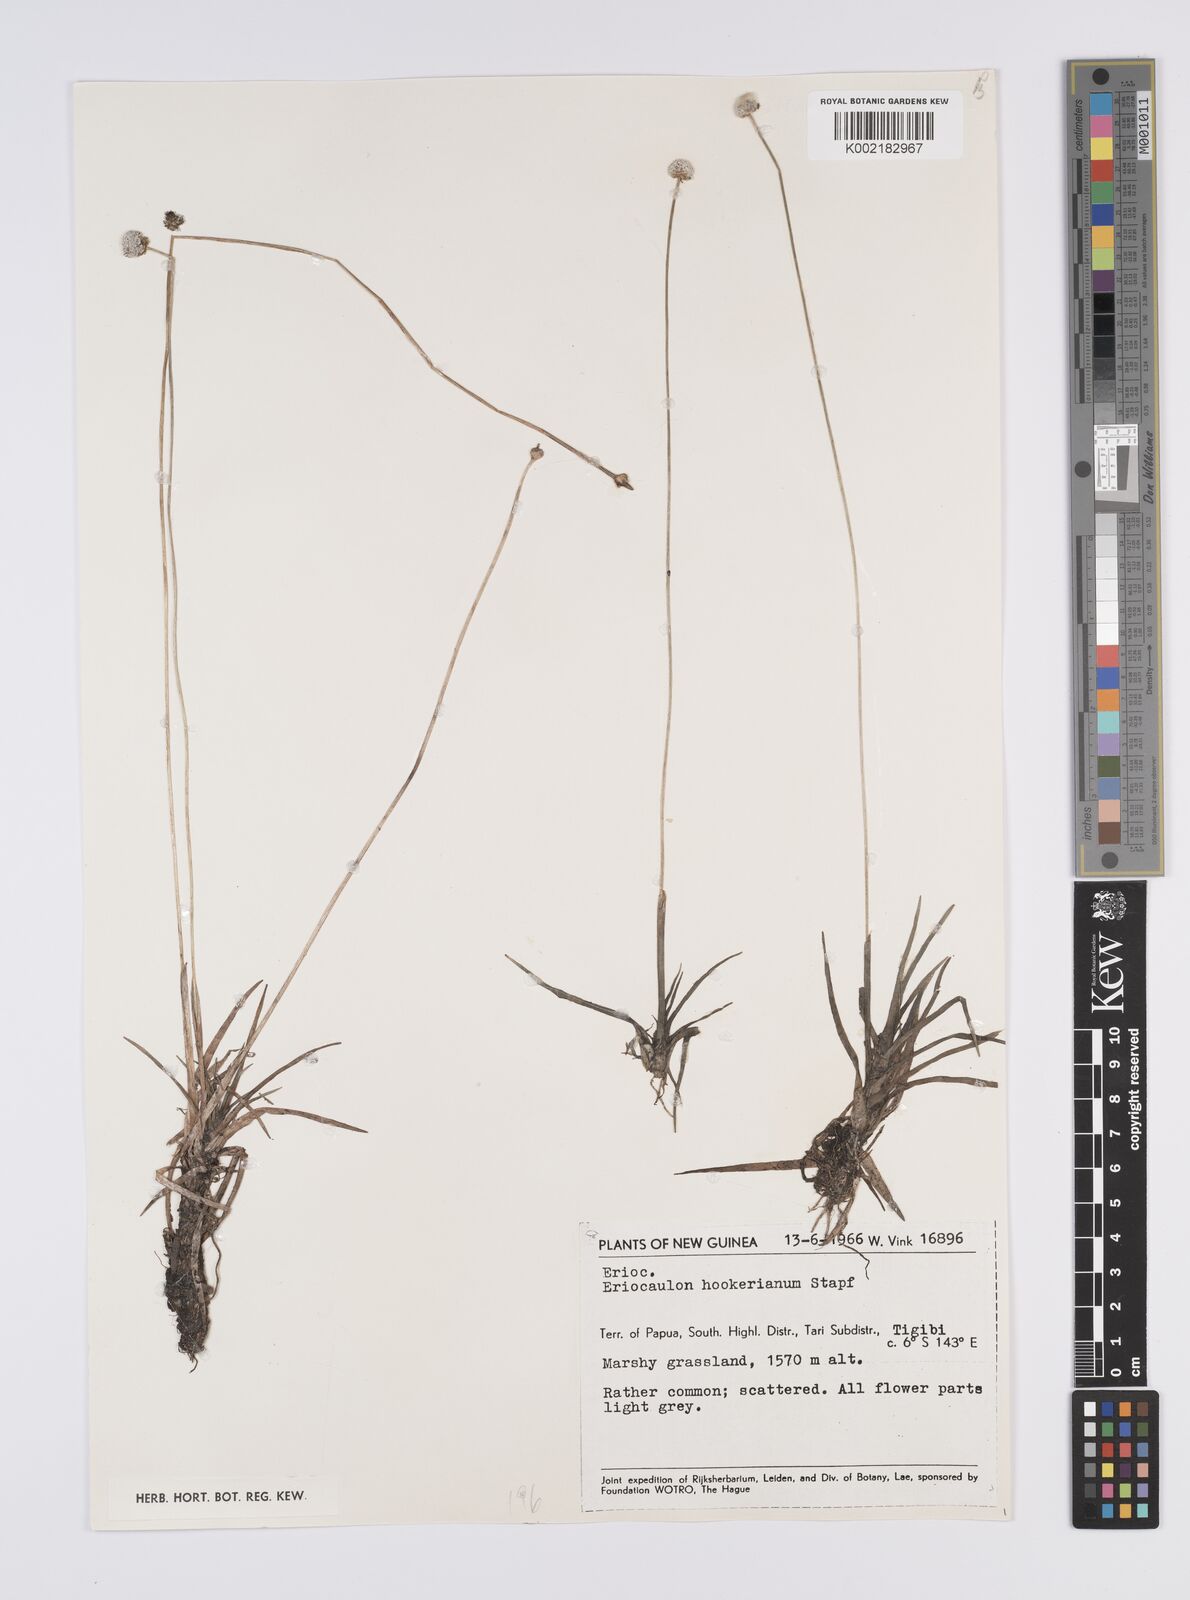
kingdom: Plantae
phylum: Tracheophyta
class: Liliopsida
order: Poales
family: Eriocaulaceae
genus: Eriocaulon
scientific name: Eriocaulon hookerianum
